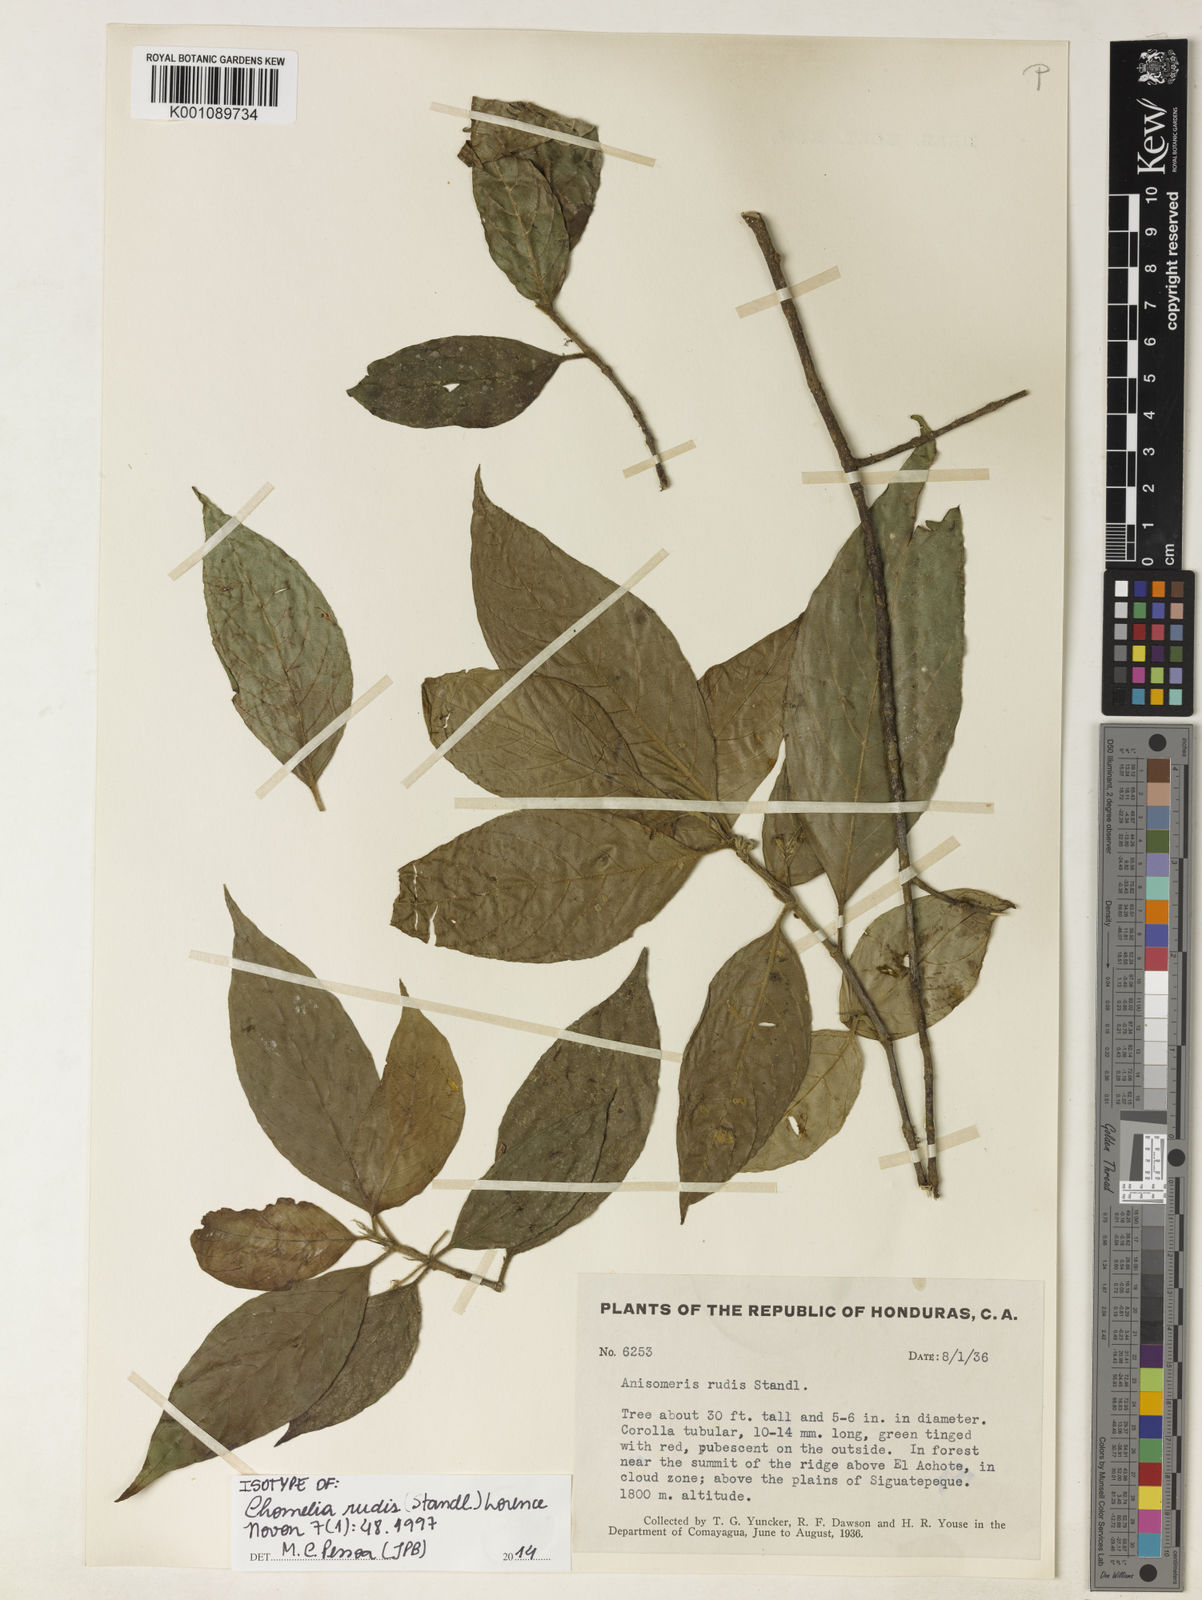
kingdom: Plantae
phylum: Tracheophyta
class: Magnoliopsida
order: Gentianales
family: Rubiaceae
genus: Chomelia
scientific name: Chomelia rudis
